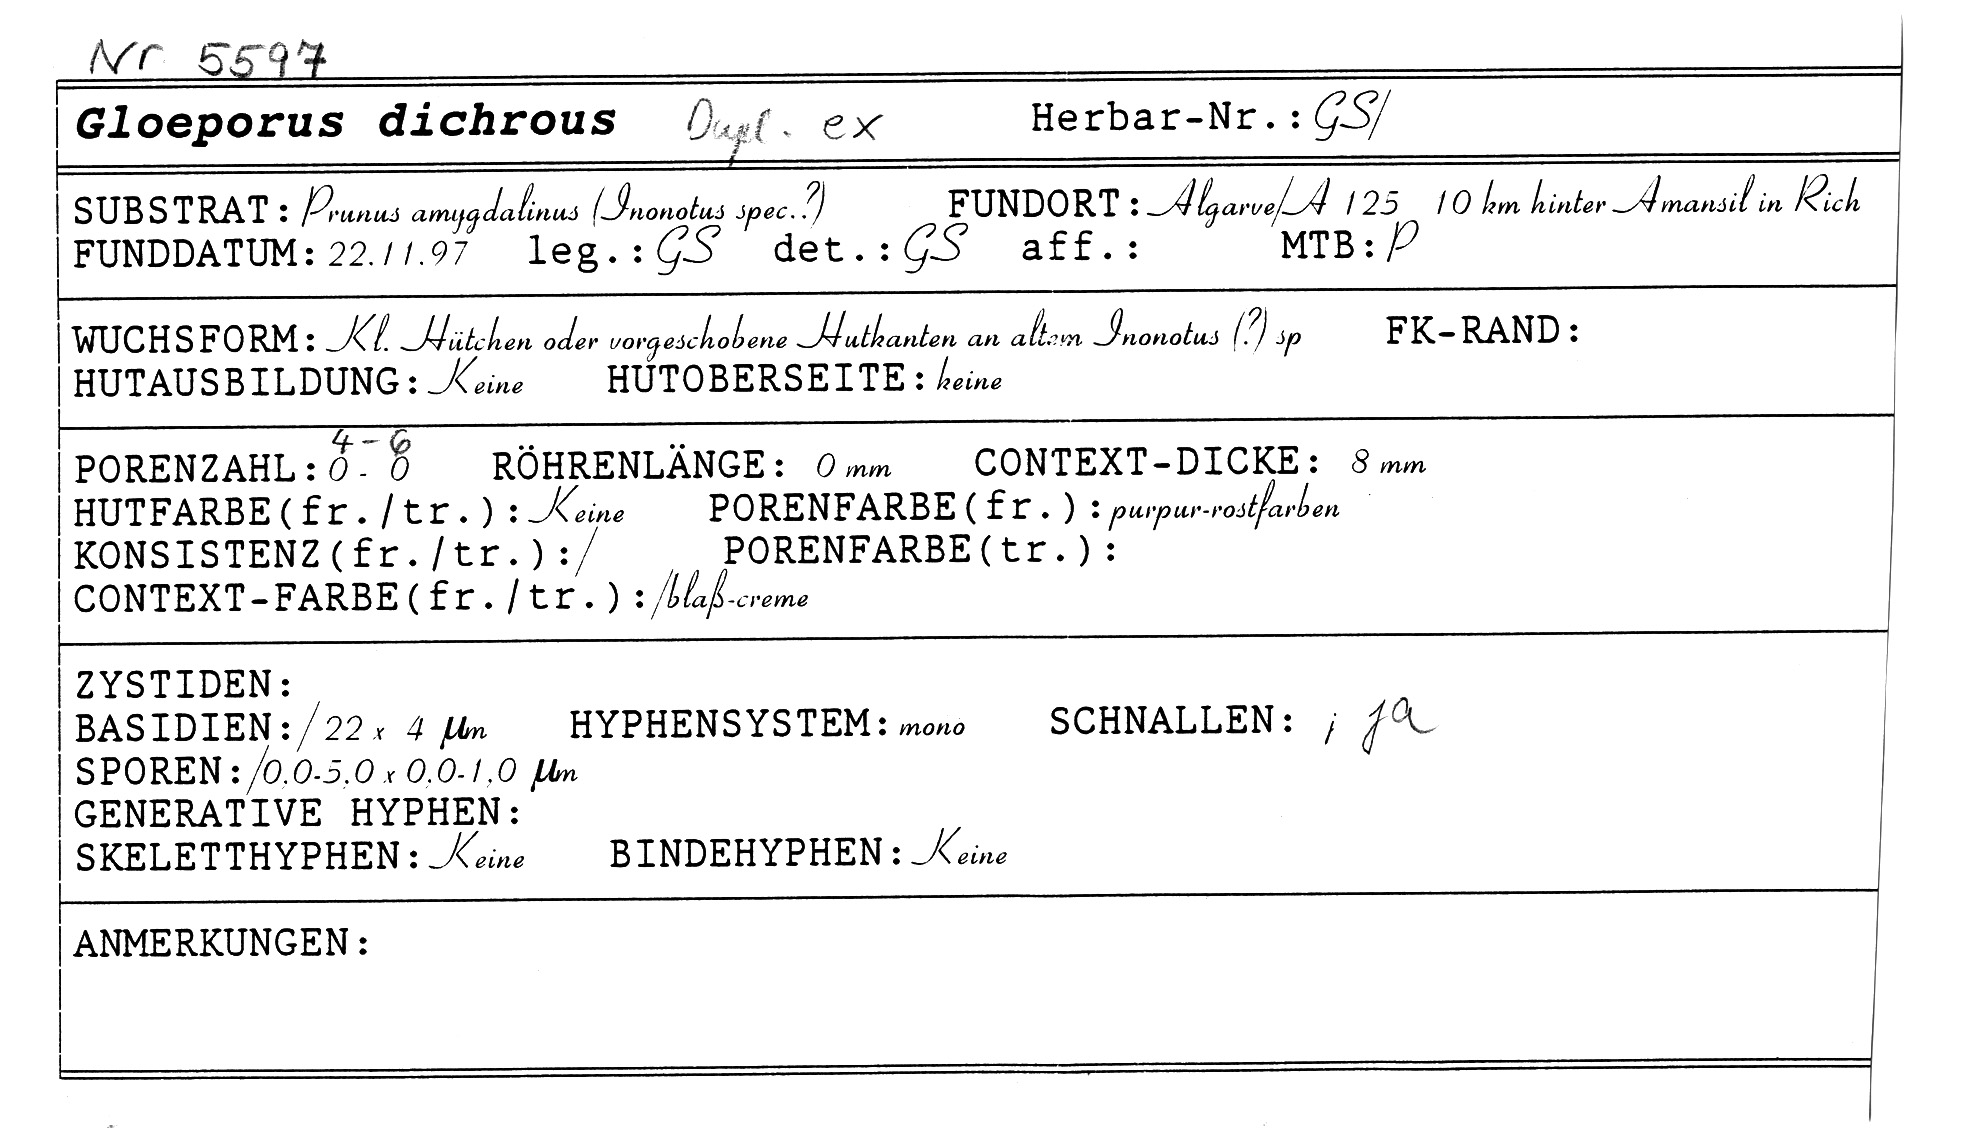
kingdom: Fungi
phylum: Basidiomycota
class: Agaricomycetes
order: Polyporales
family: Irpicaceae
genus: Vitreoporus
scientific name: Vitreoporus dichrous
